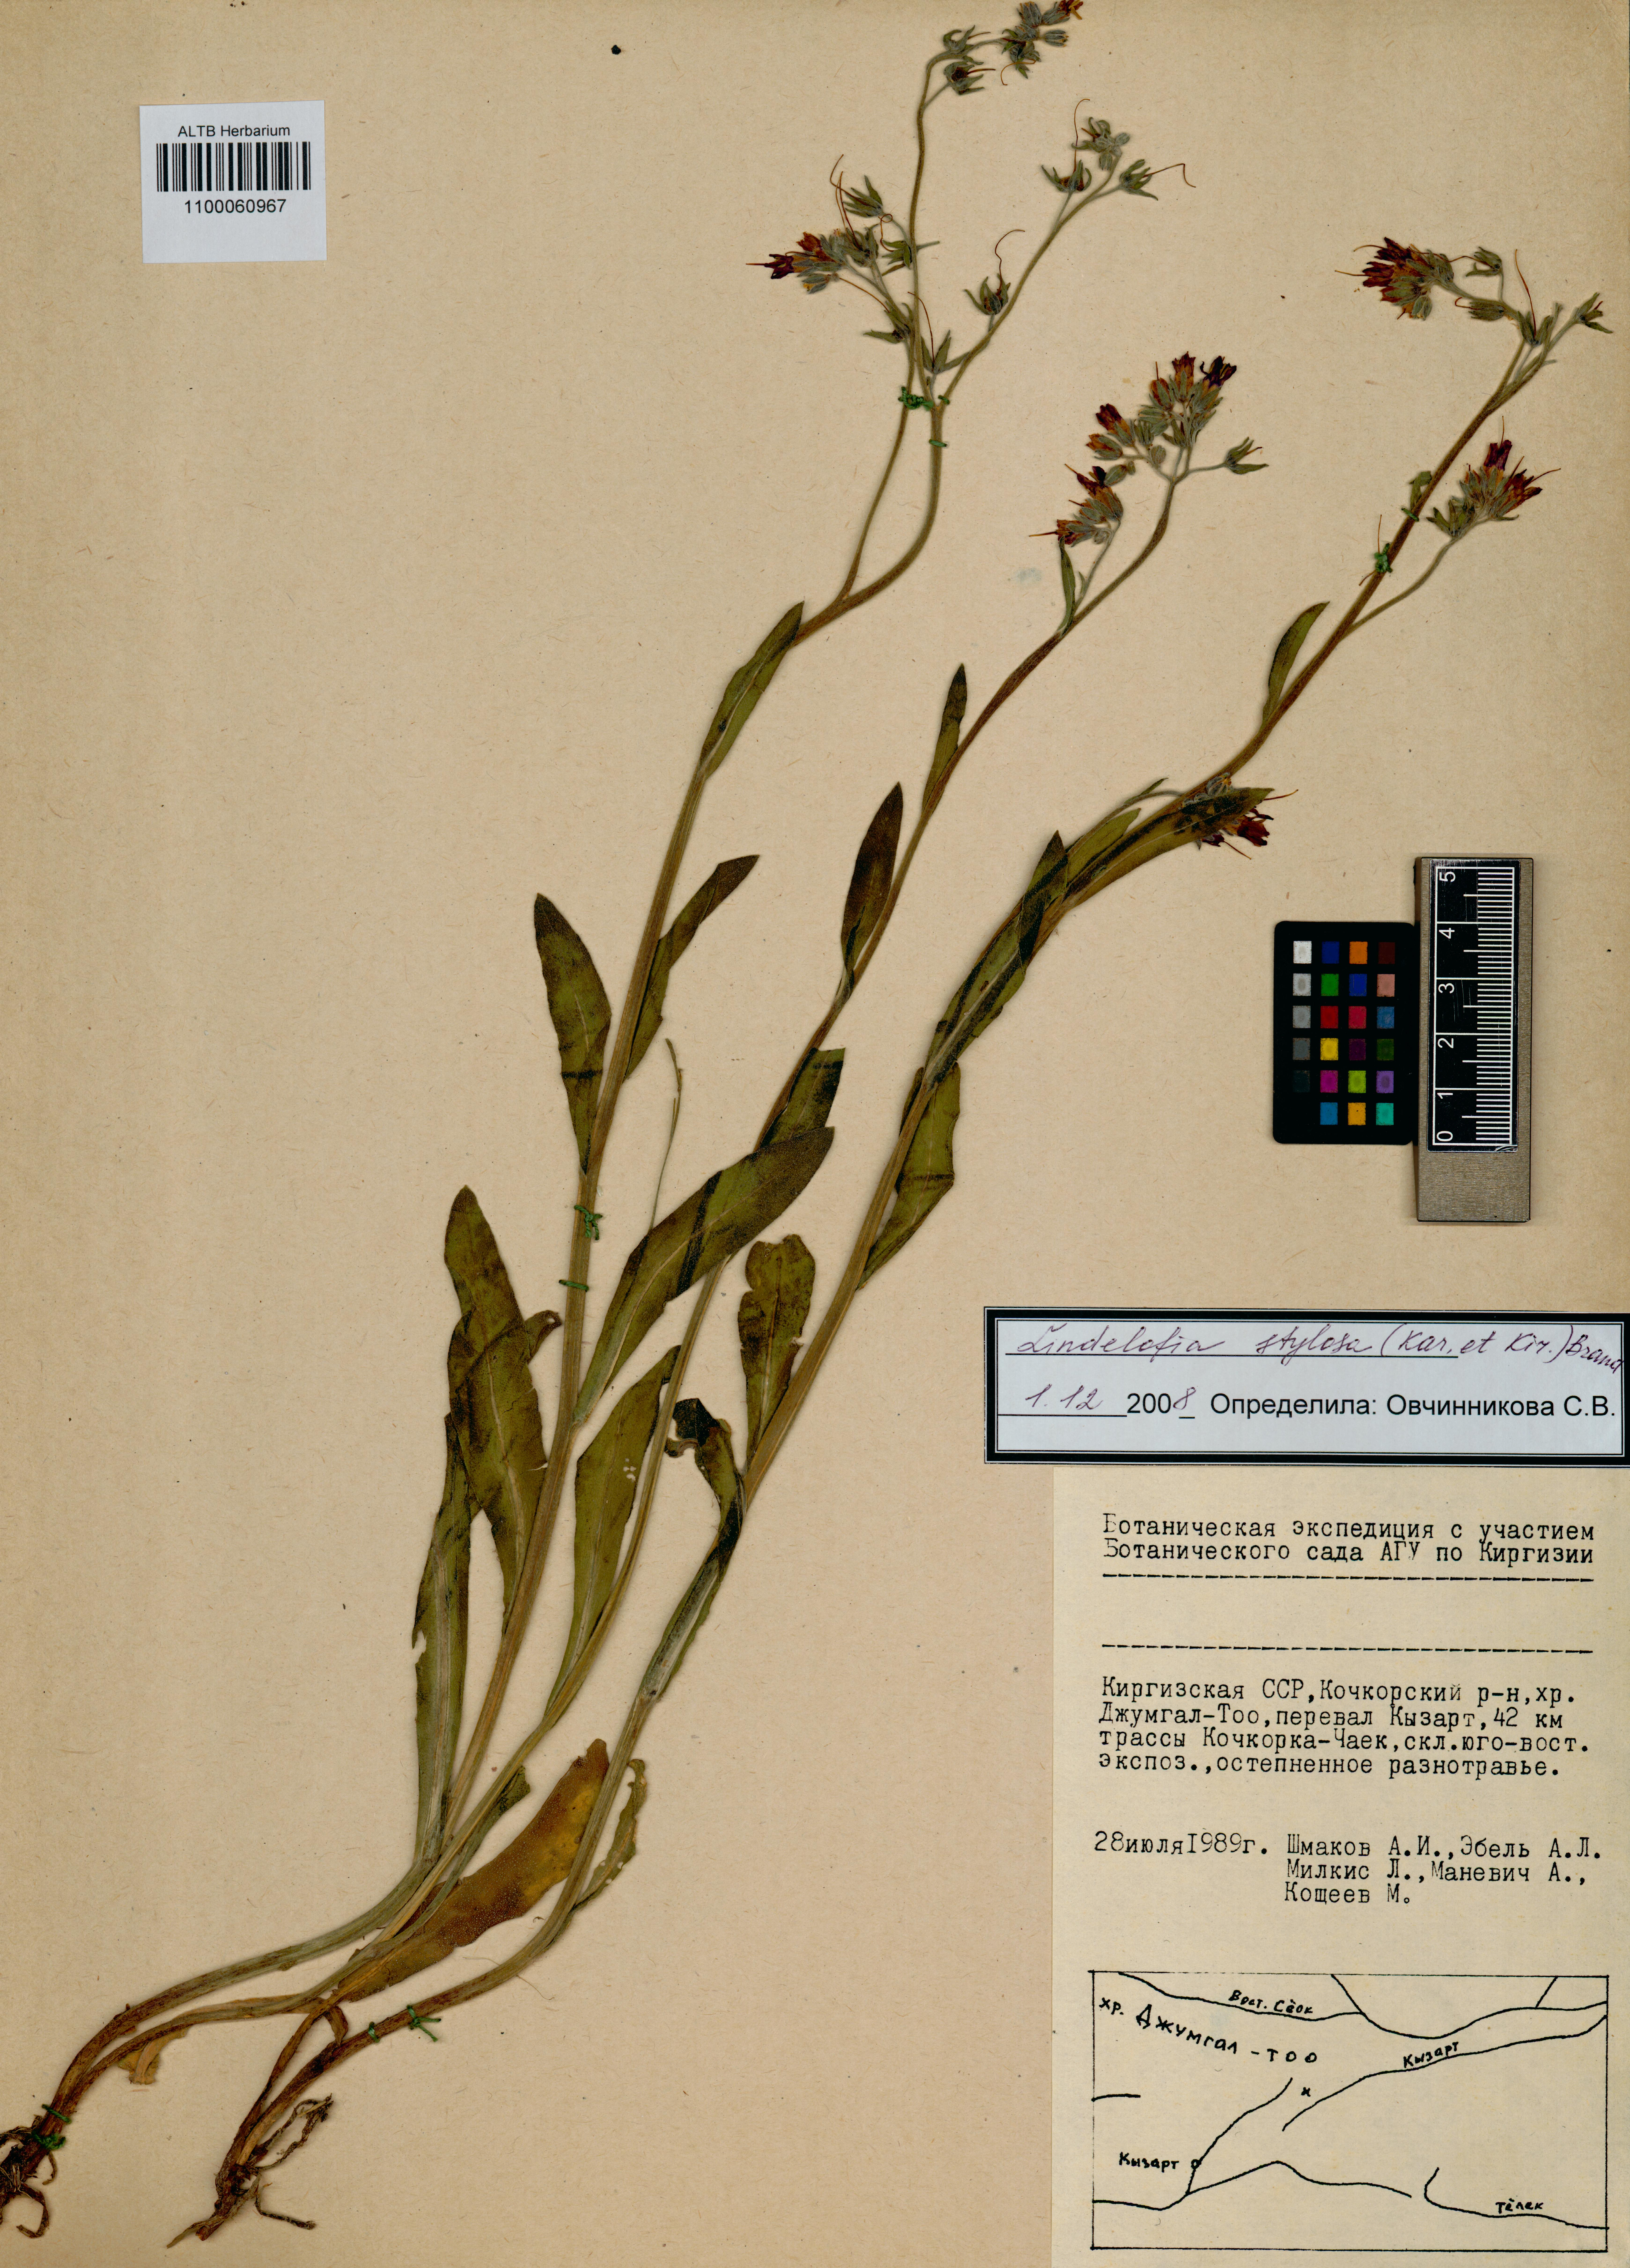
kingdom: Plantae
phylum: Tracheophyta
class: Magnoliopsida
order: Boraginales
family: Boraginaceae
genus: Lindelofia
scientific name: Lindelofia stylosa
